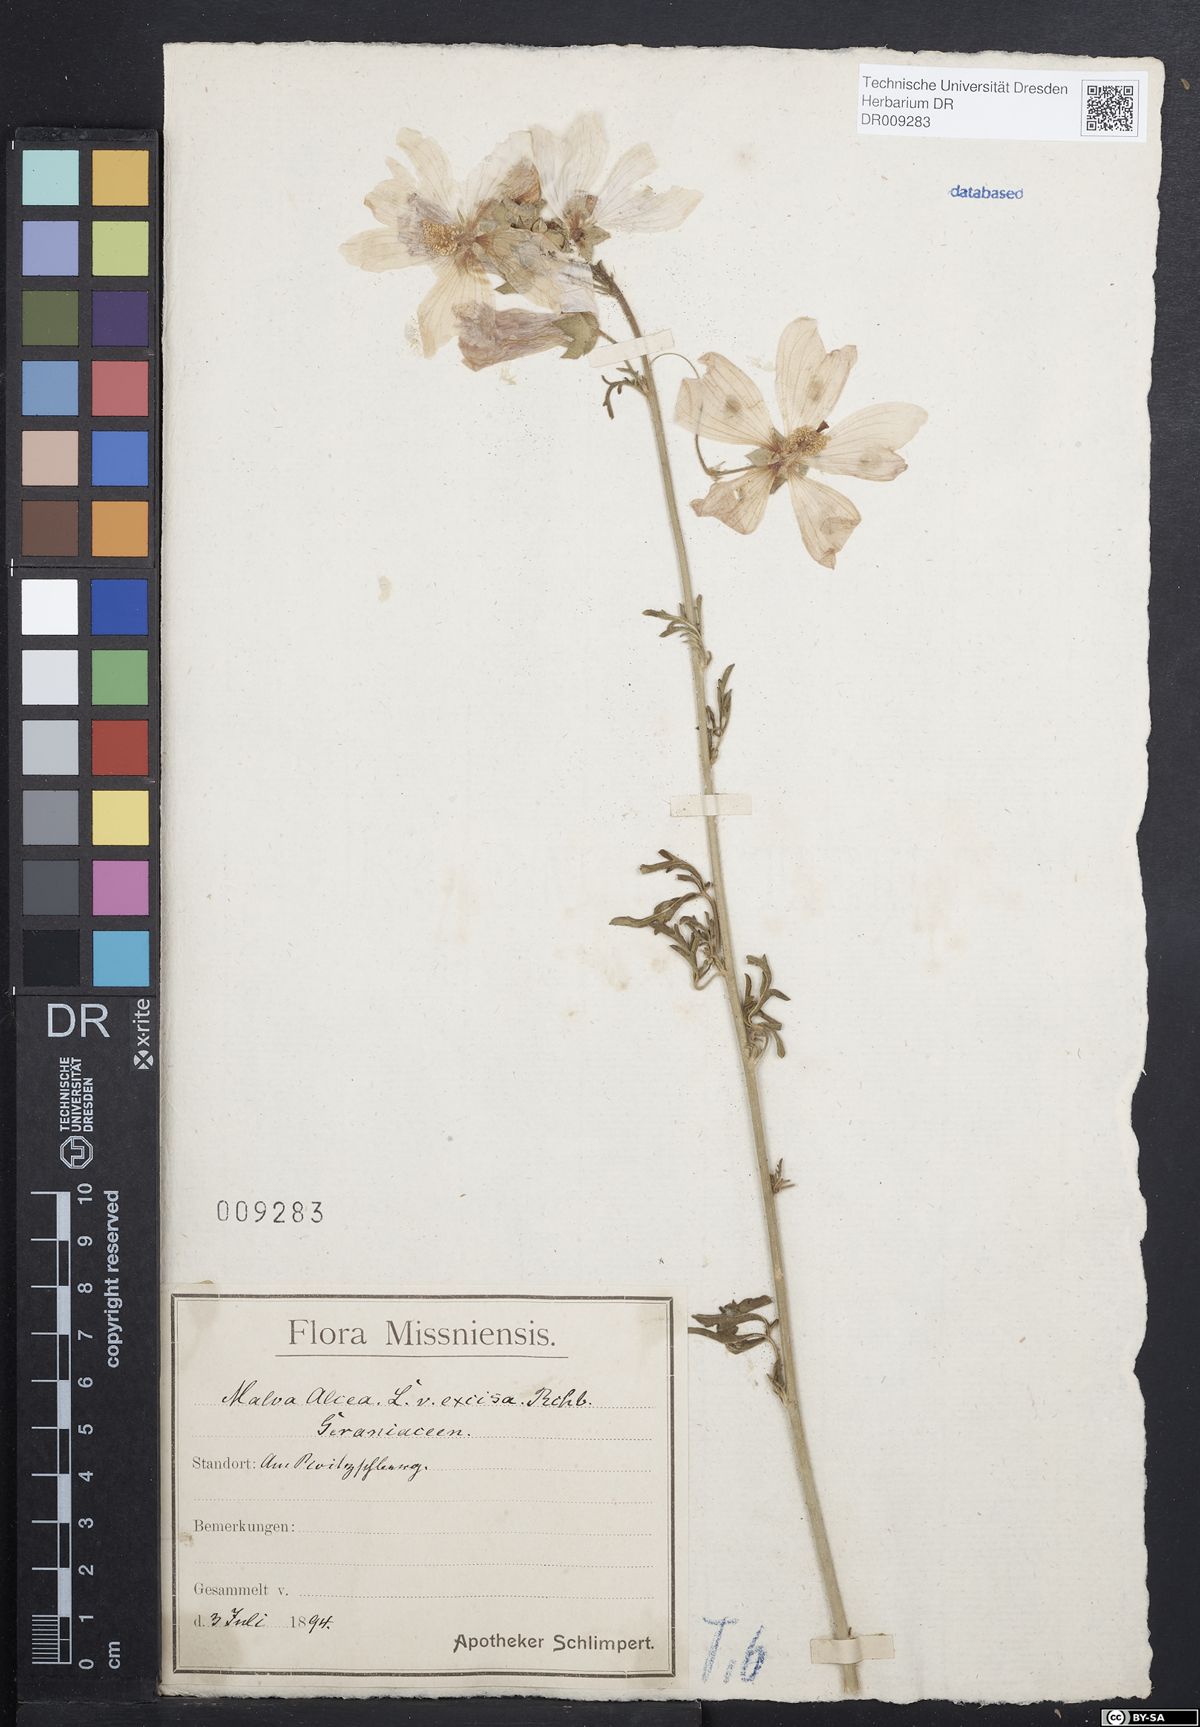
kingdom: Plantae
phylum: Tracheophyta
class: Magnoliopsida
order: Malvales
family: Malvaceae
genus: Malva
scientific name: Malva alcea
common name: Greater musk-mallow
